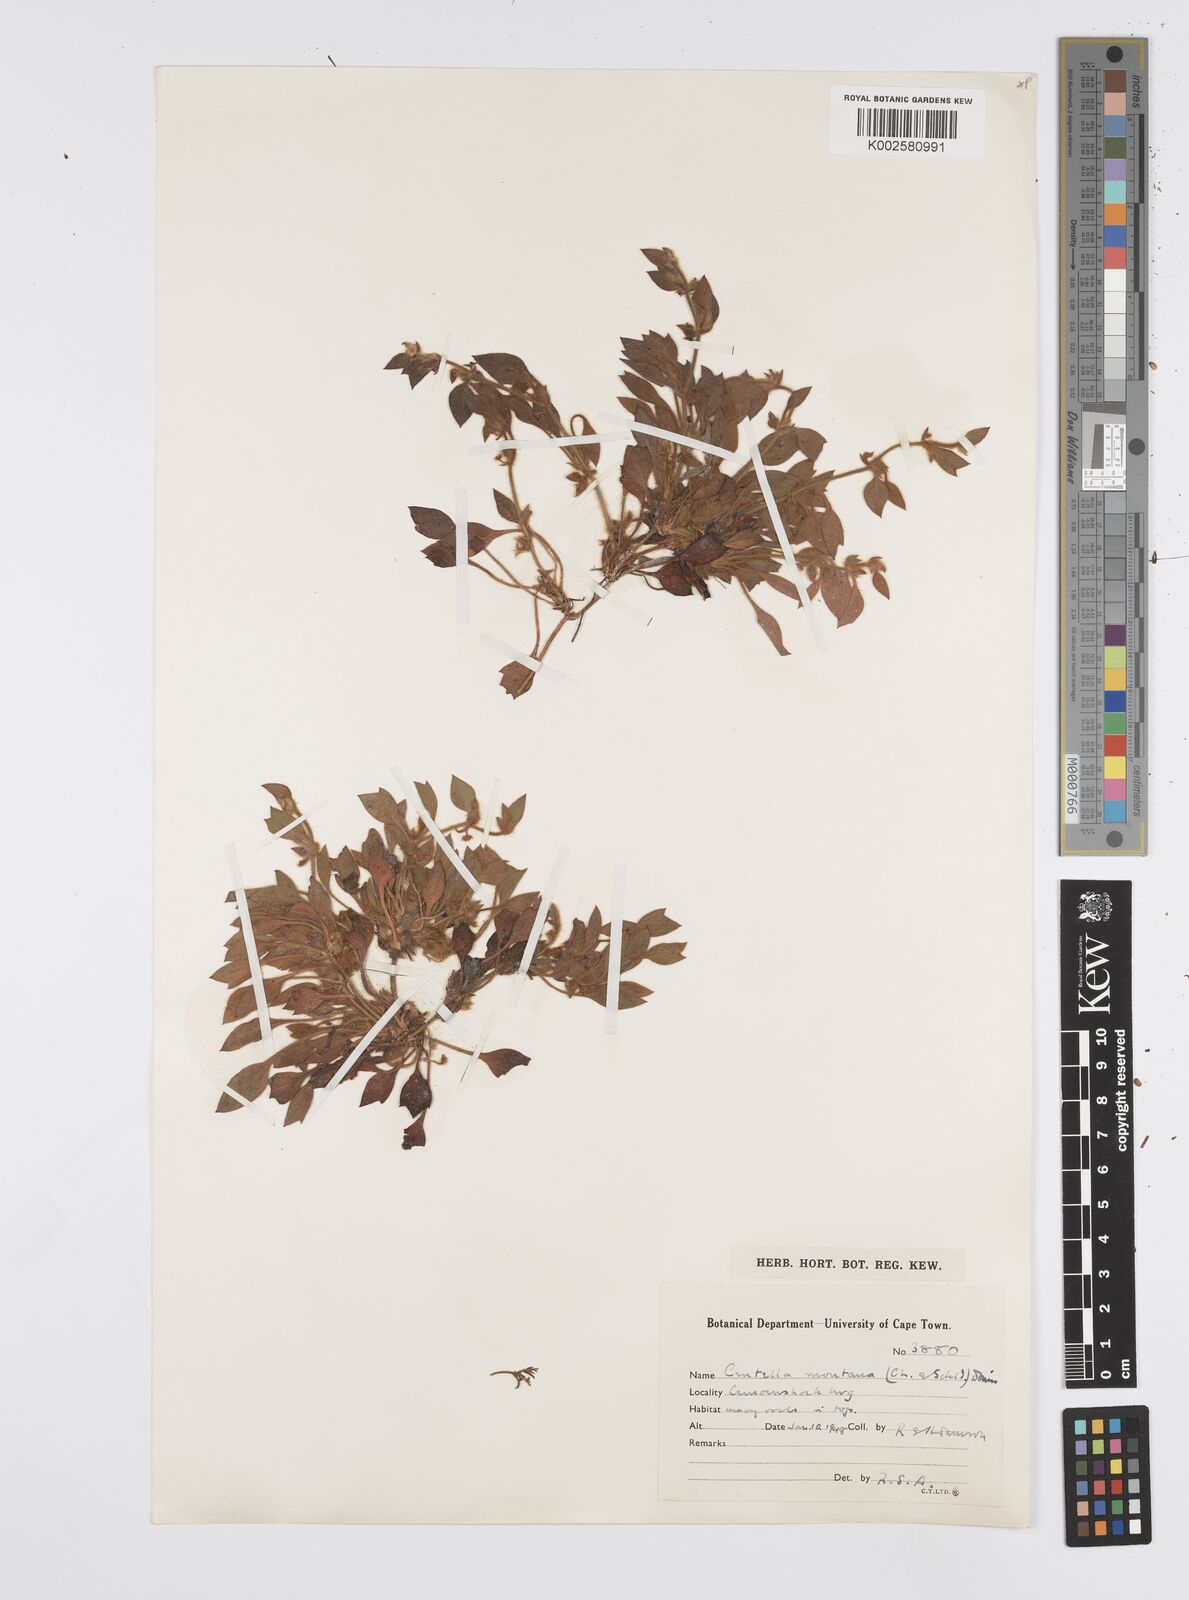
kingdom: Plantae
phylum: Tracheophyta
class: Magnoliopsida
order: Apiales
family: Apiaceae
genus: Centella
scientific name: Centella montana
